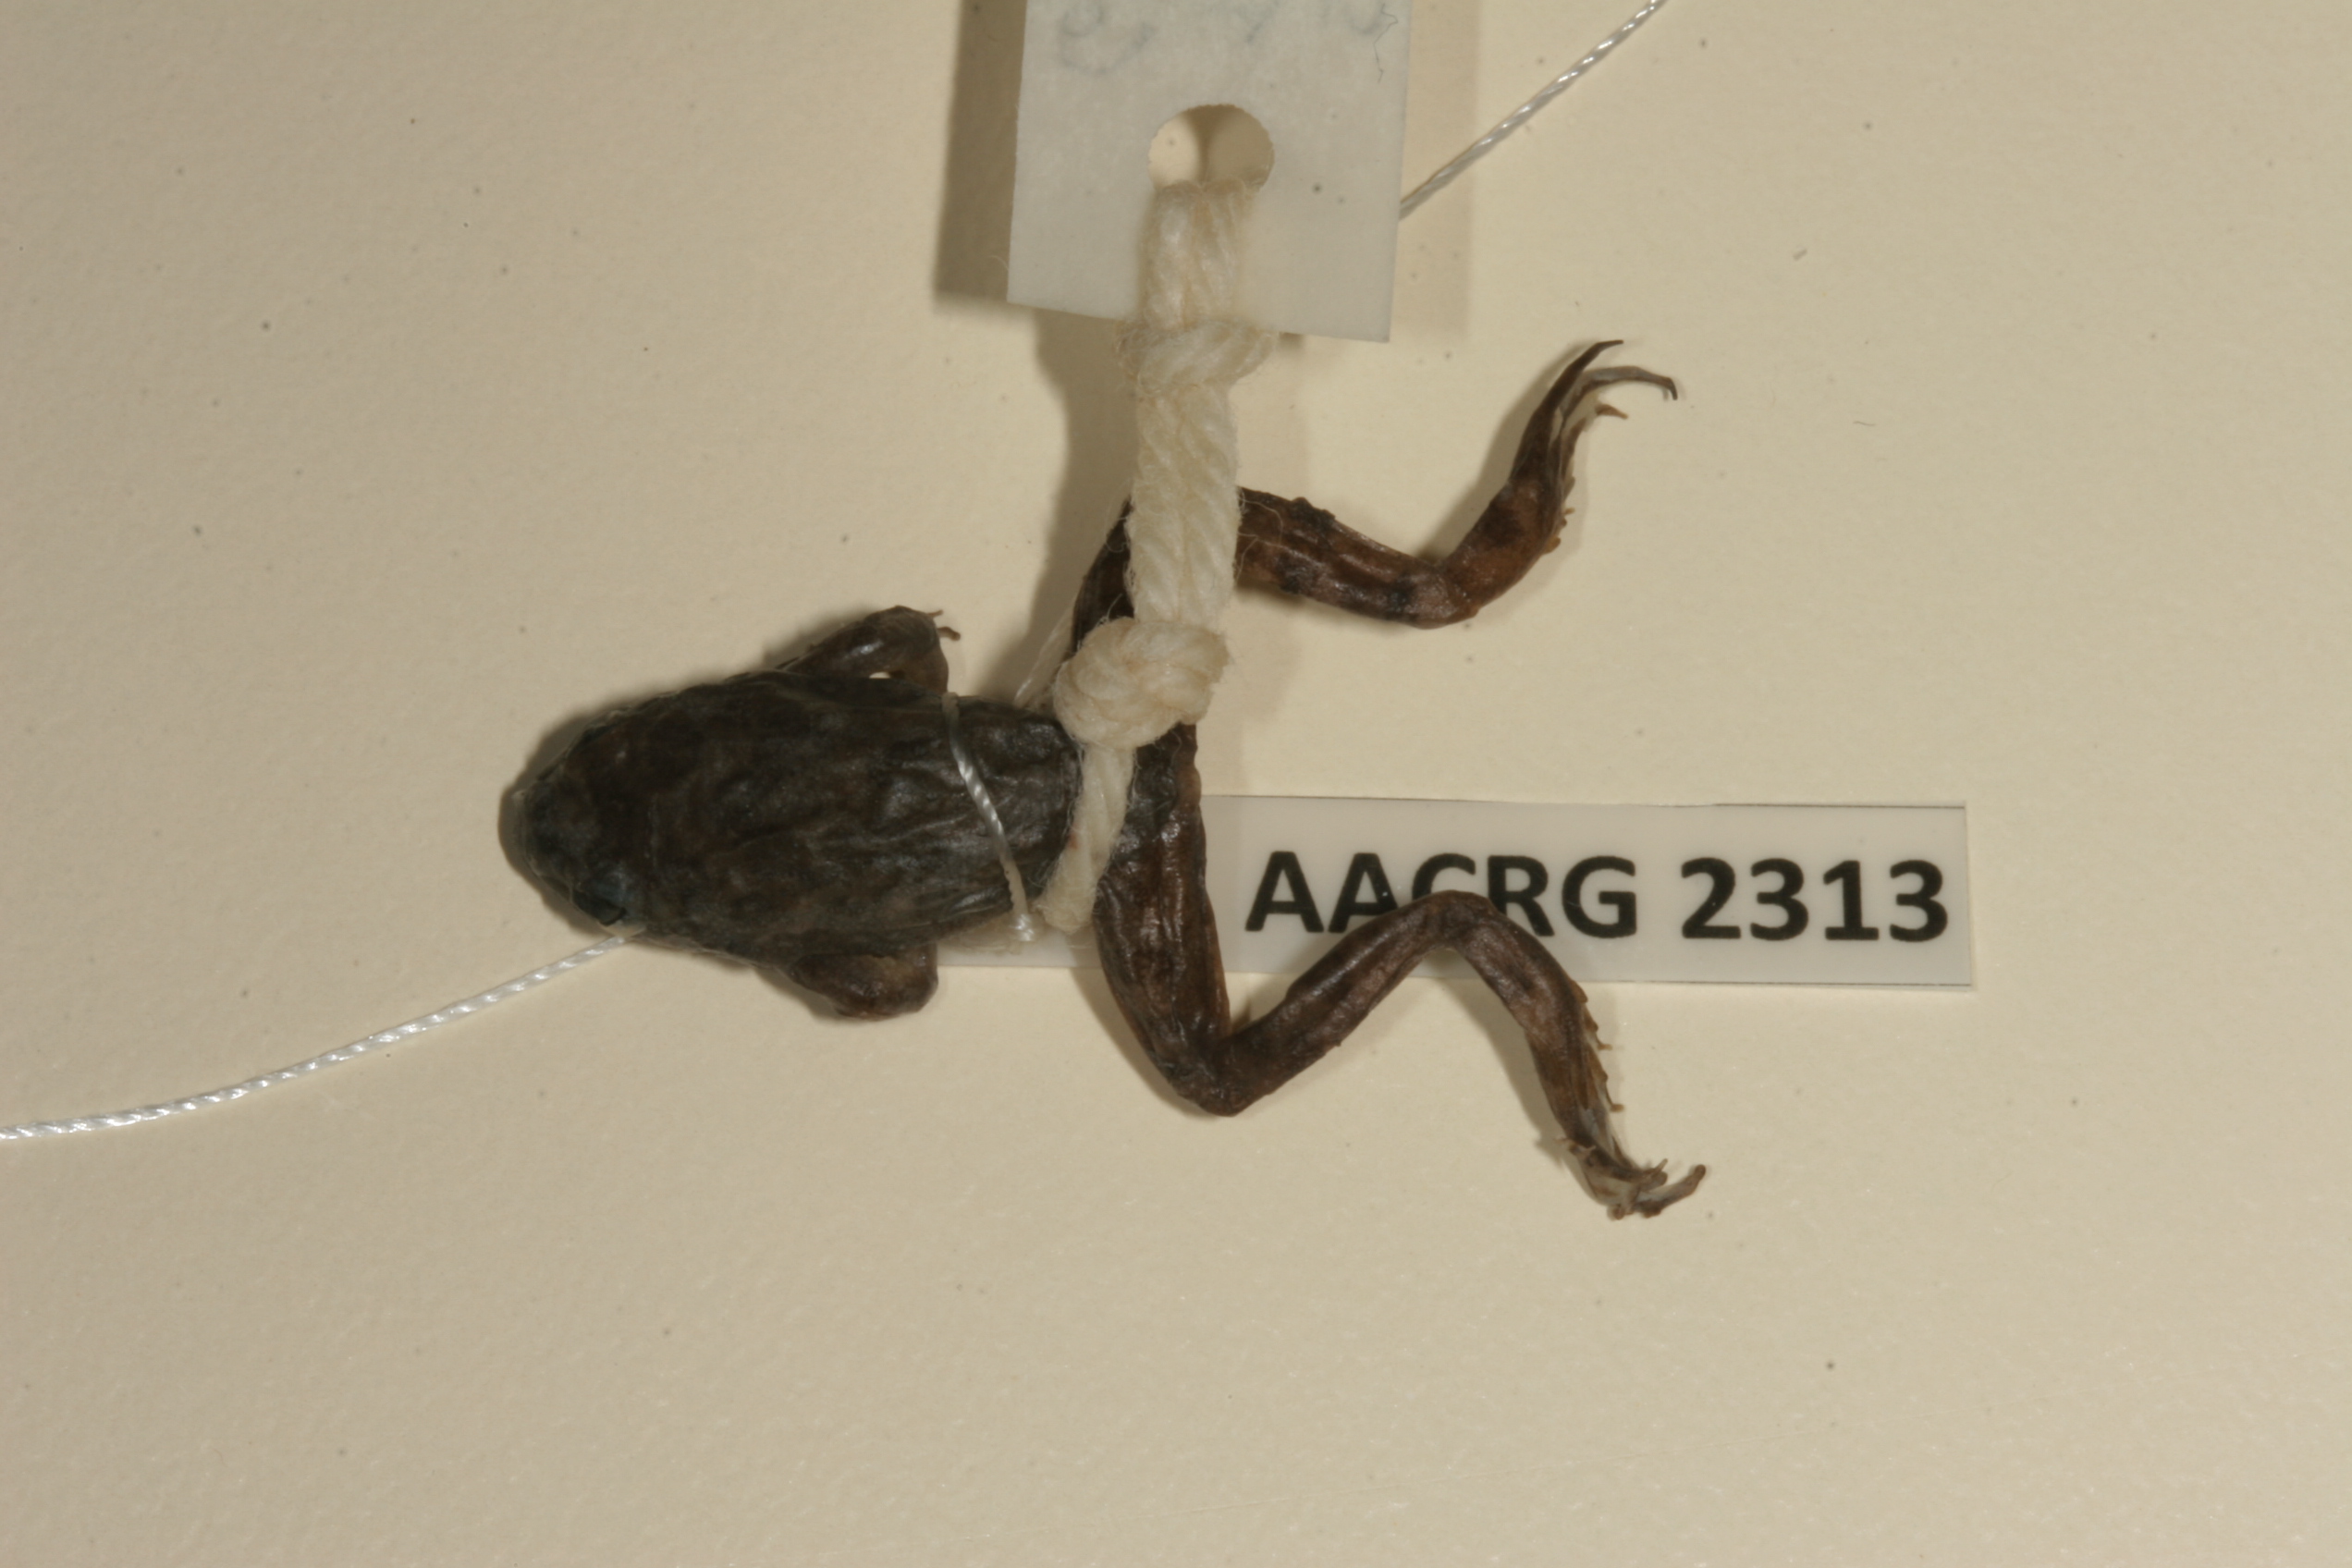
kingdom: Animalia
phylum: Chordata
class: Amphibia
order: Anura
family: Pyxicephalidae
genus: Amietia
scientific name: Amietia vertebralis
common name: Drakensberg stream frog
